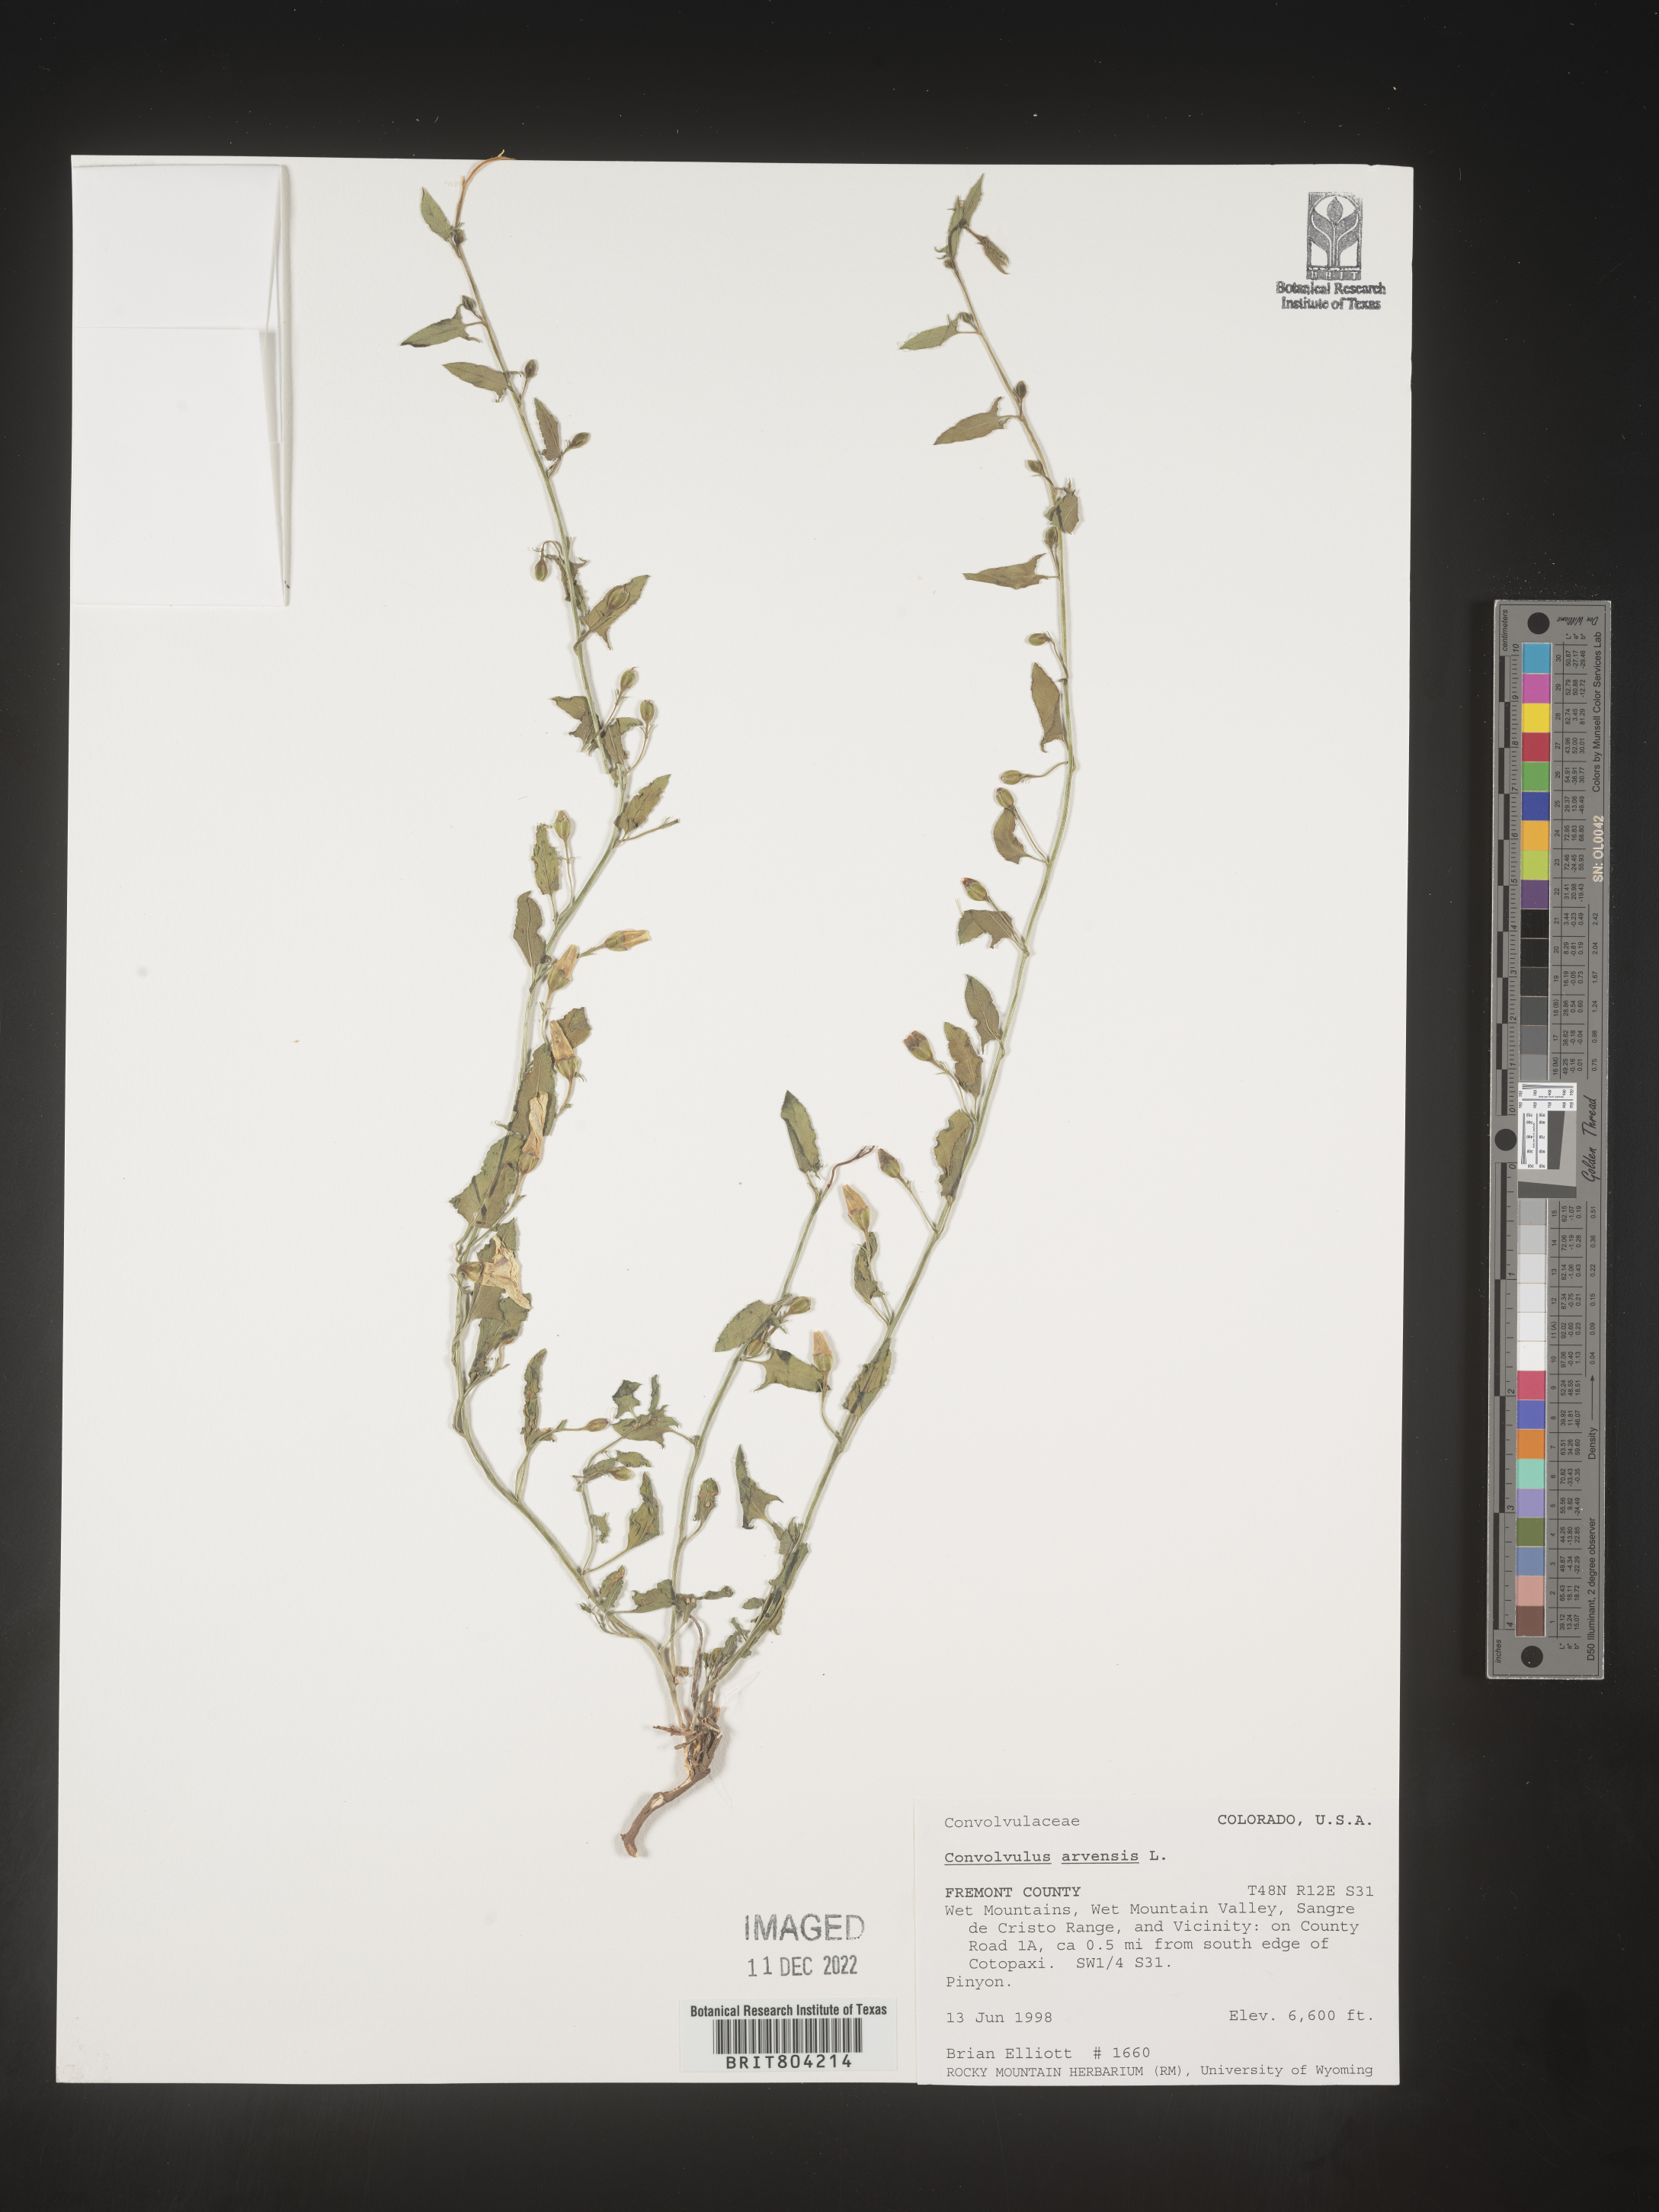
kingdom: Plantae
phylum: Tracheophyta
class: Magnoliopsida
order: Solanales
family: Convolvulaceae
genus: Convolvulus
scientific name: Convolvulus arvensis
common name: Field bindweed
